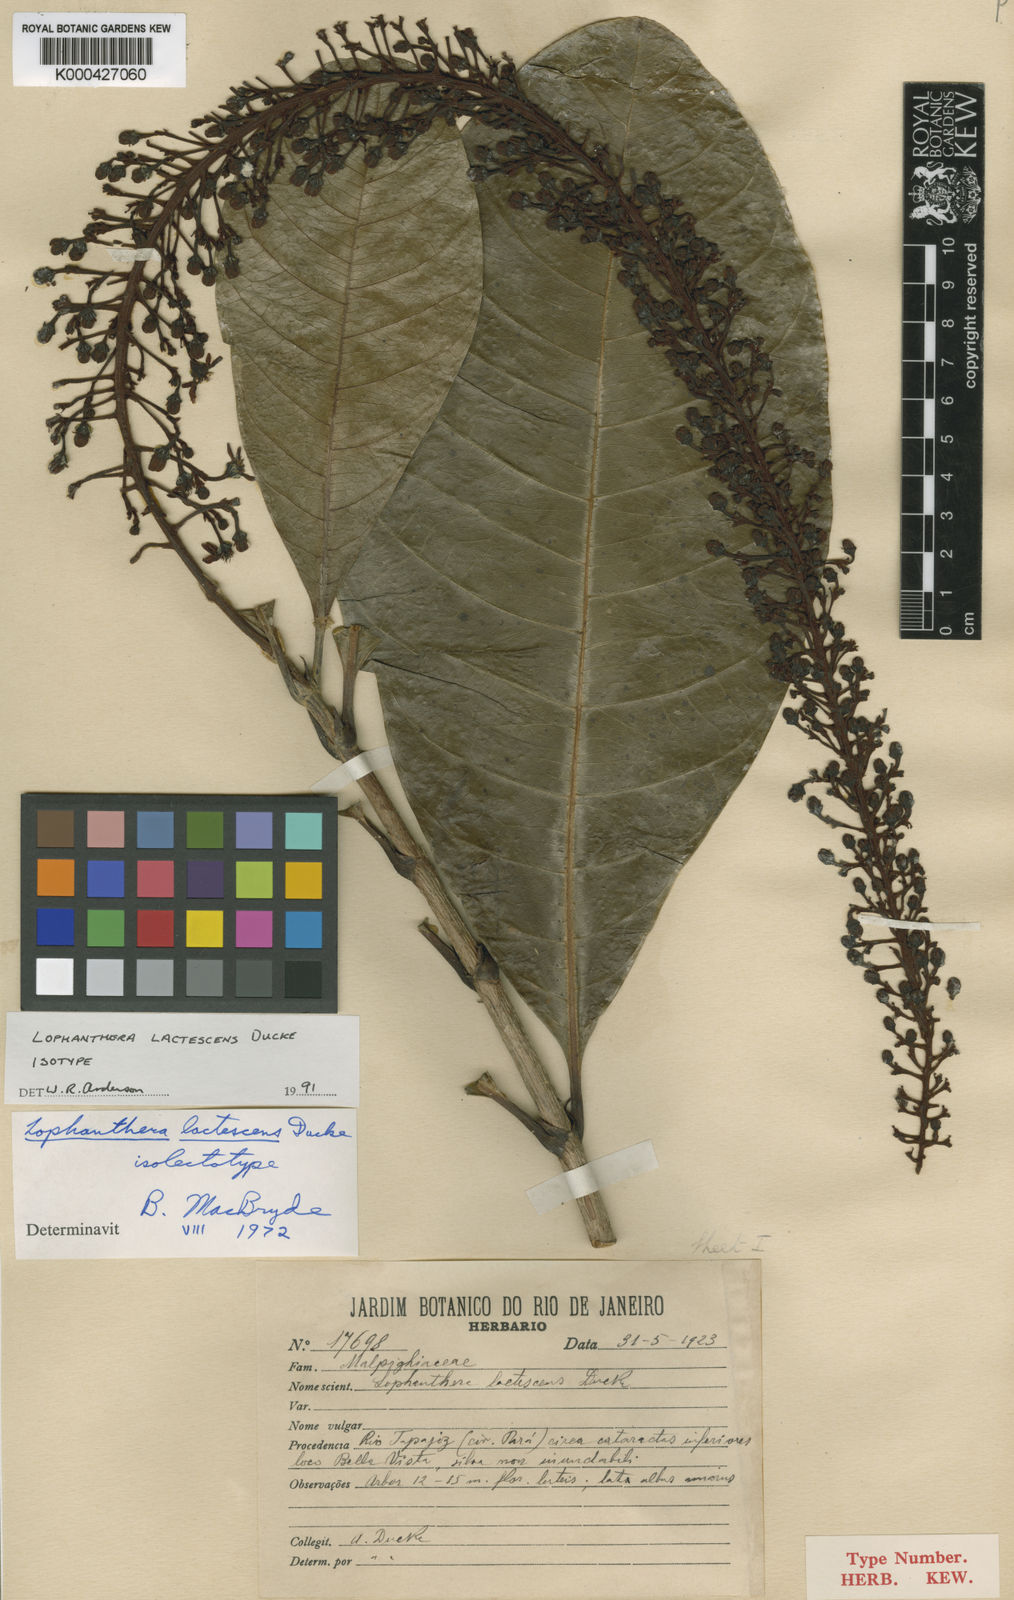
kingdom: Plantae
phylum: Tracheophyta
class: Magnoliopsida
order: Malpighiales
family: Malpighiaceae
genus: Lophanthera
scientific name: Lophanthera lactescens
